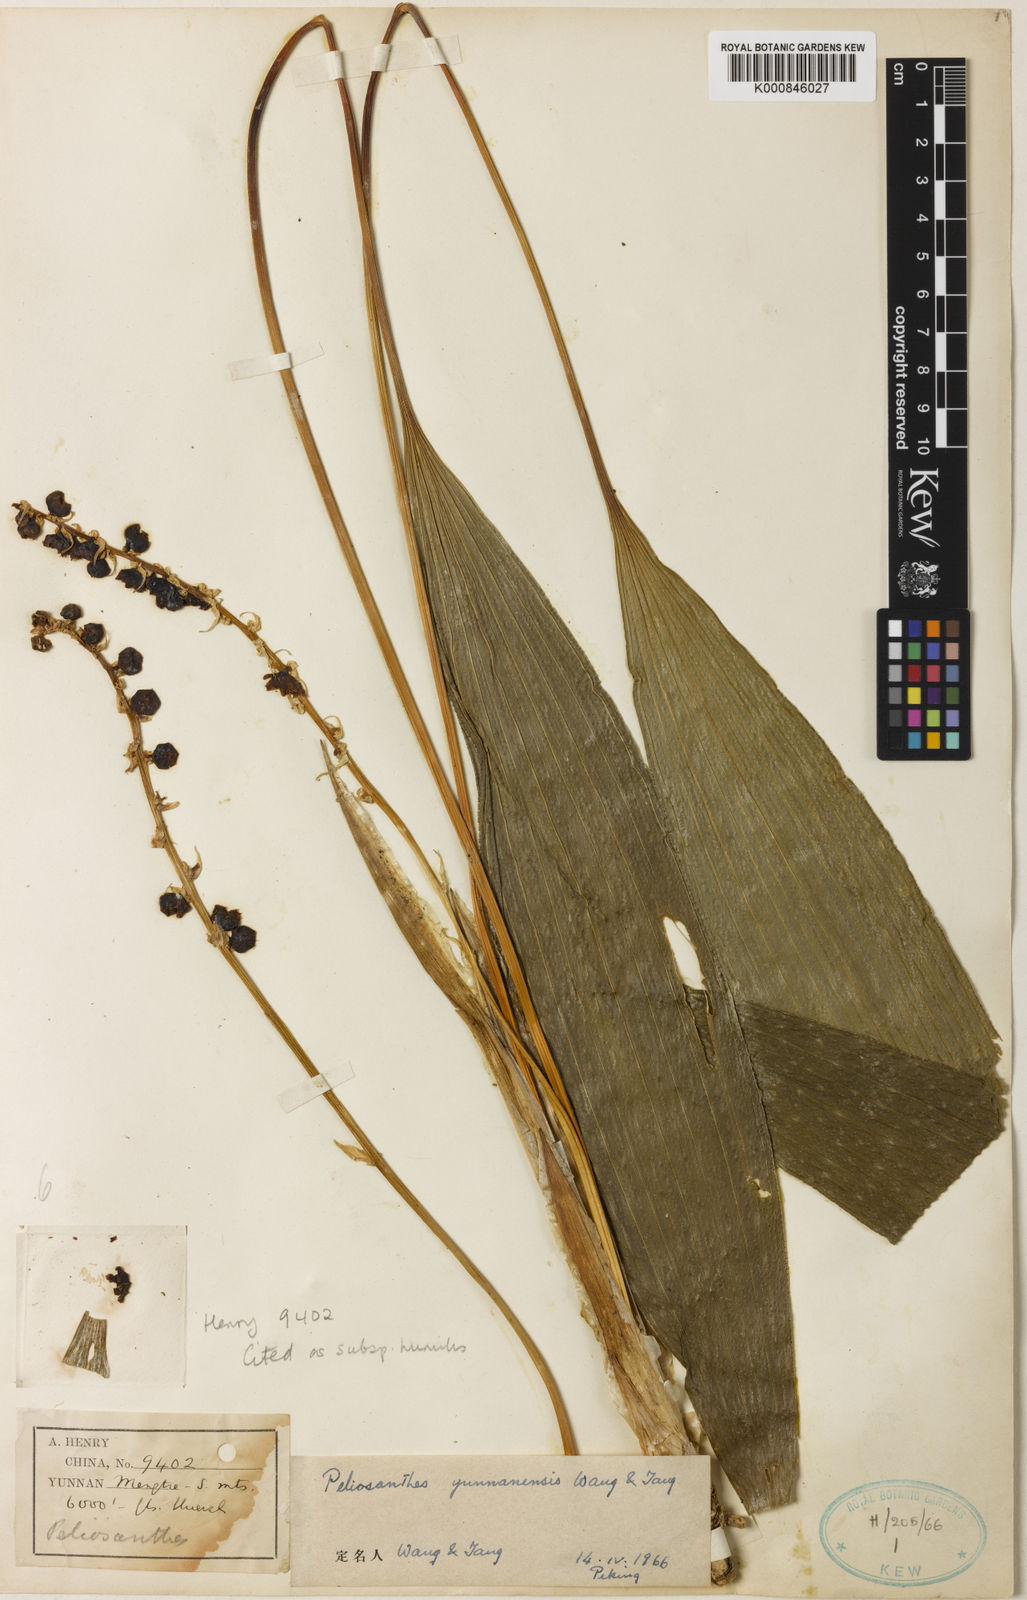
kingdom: Plantae
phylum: Tracheophyta
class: Liliopsida
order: Asparagales
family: Asparagaceae
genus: Peliosanthes
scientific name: Peliosanthes teta
